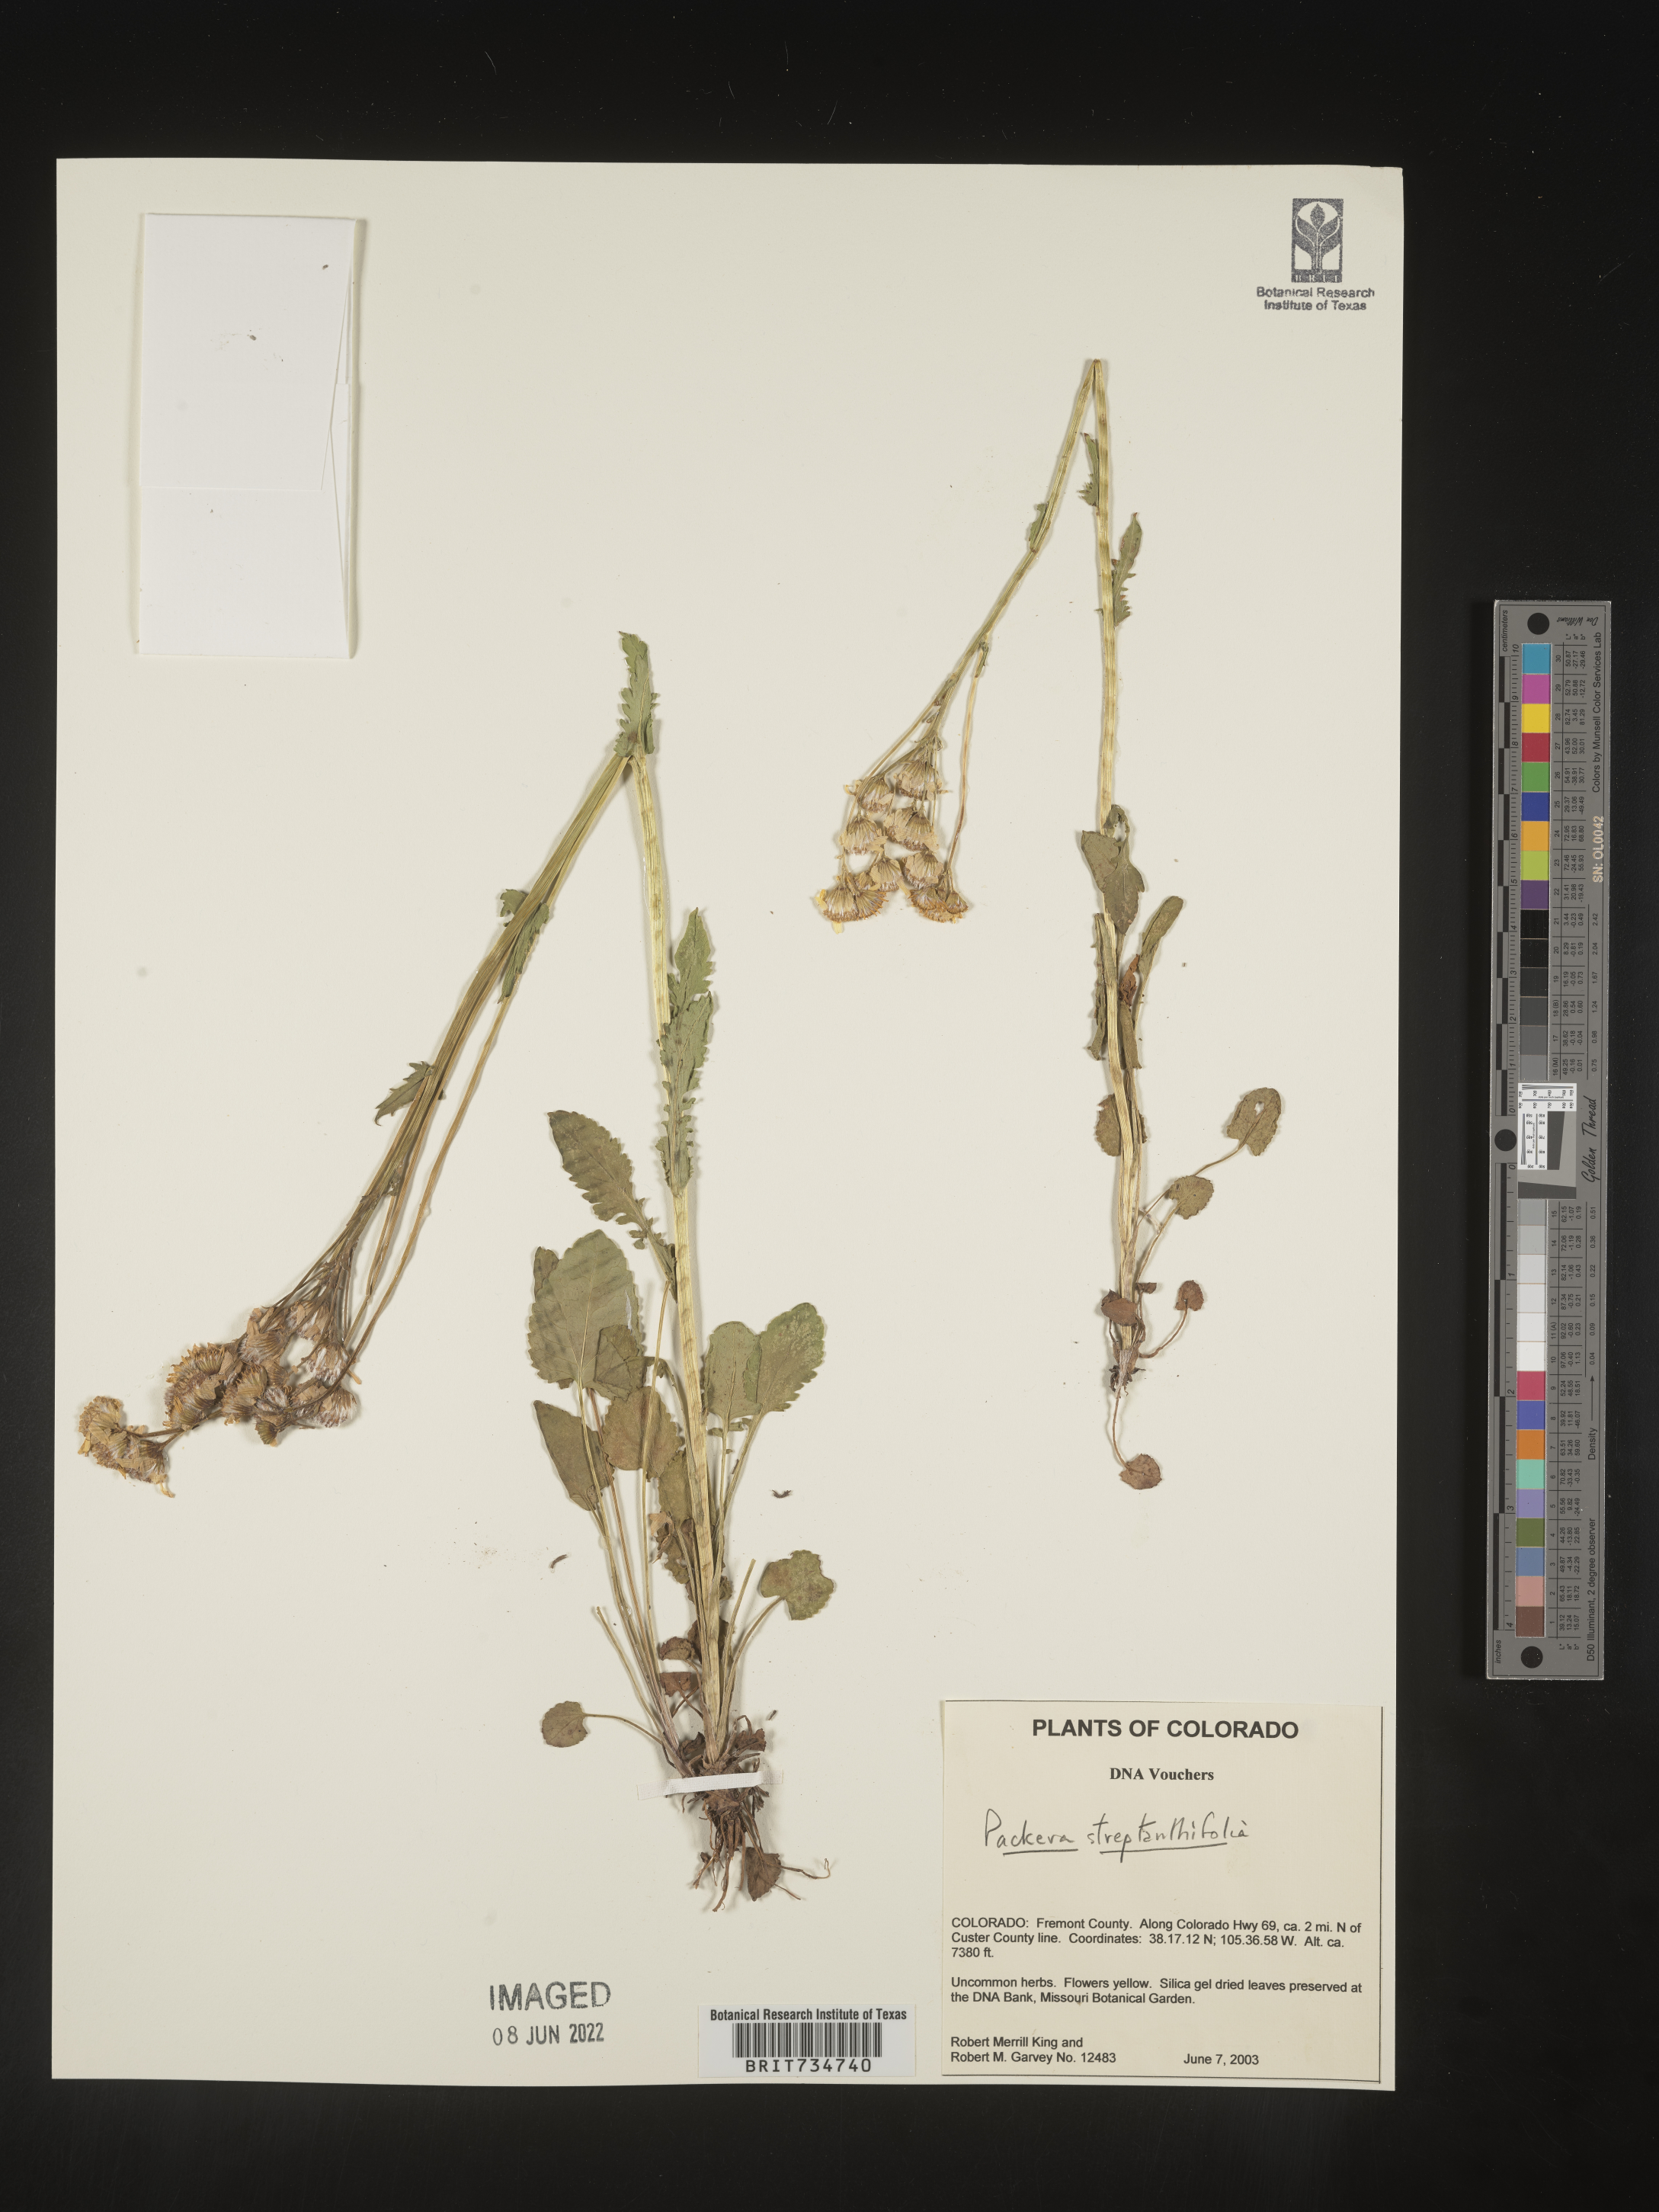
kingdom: Plantae
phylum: Tracheophyta
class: Magnoliopsida
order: Asterales
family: Asteraceae
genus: Packera
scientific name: Packera streptanthifolia
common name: Rocky mountain butterweed
